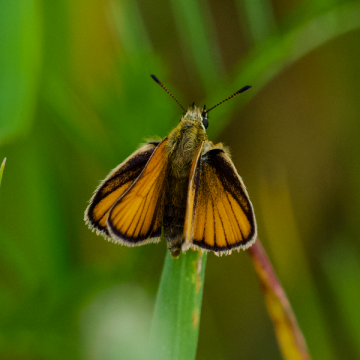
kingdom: Animalia
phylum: Arthropoda
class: Insecta
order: Lepidoptera
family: Hesperiidae
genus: Thymelicus
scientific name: Thymelicus lineola
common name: European Skipper
